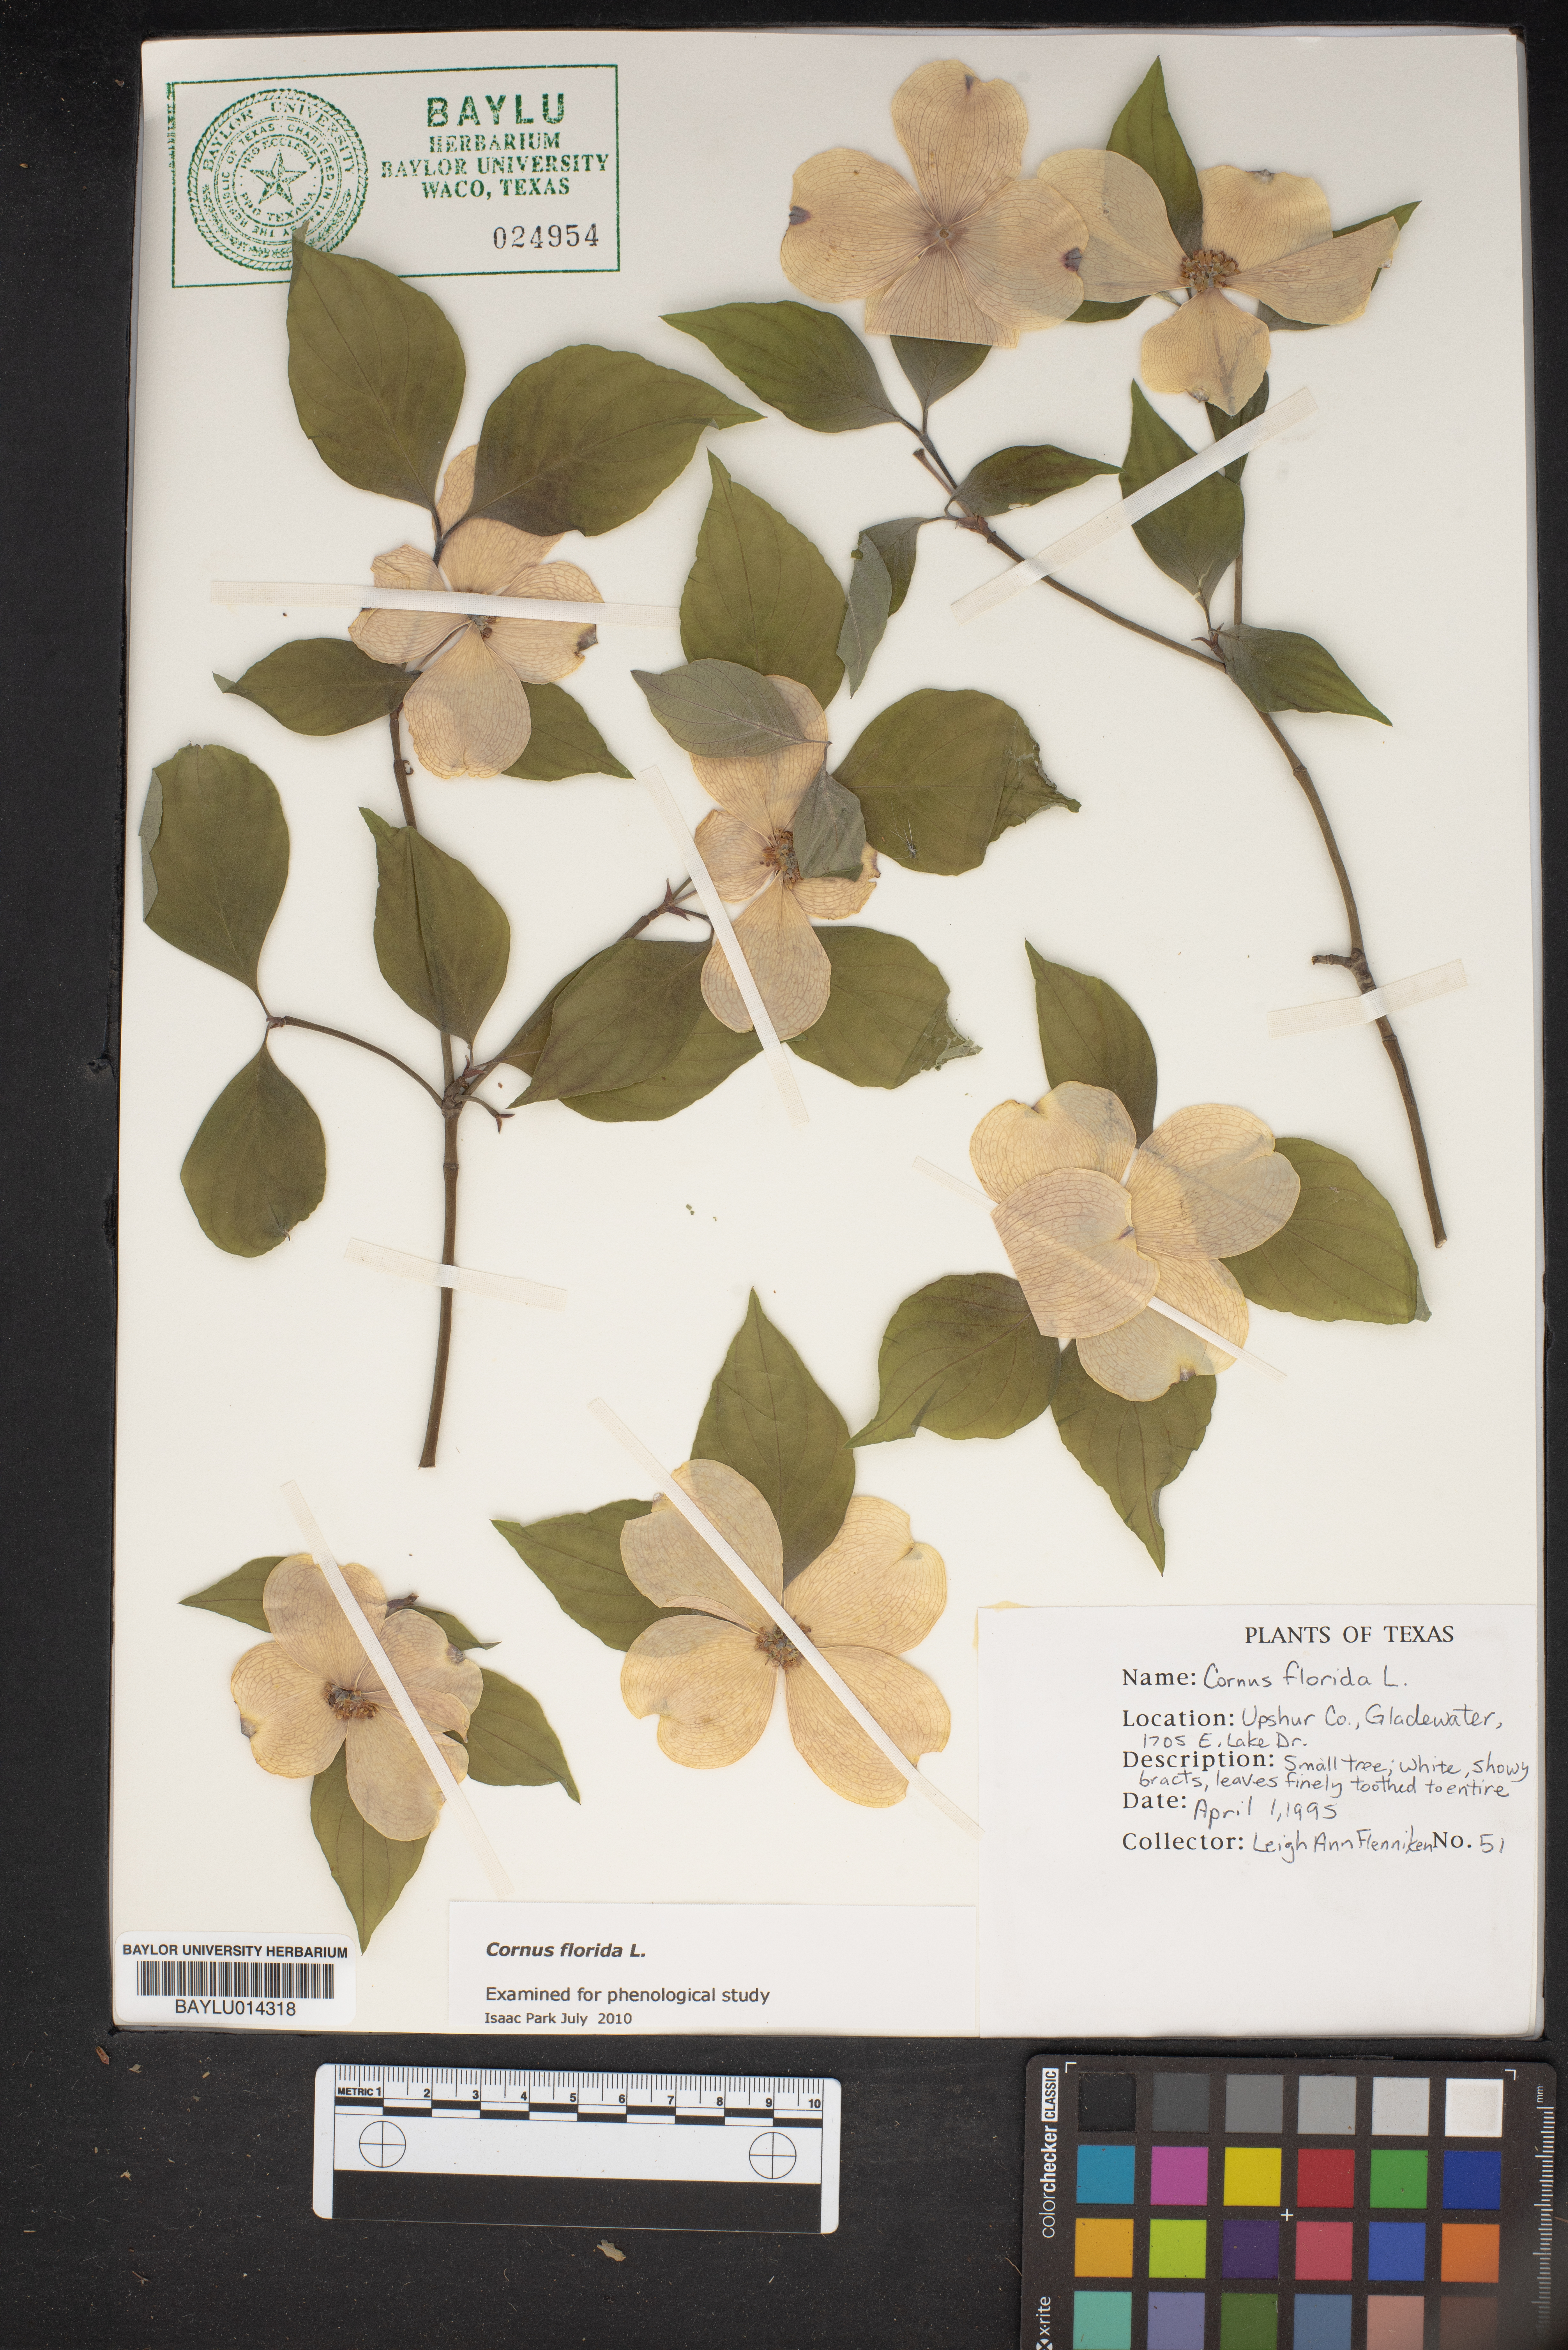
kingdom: Plantae
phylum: Tracheophyta
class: Magnoliopsida
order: Cornales
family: Cornaceae
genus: Cornus
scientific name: Cornus florida
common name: Flowering dogwood
